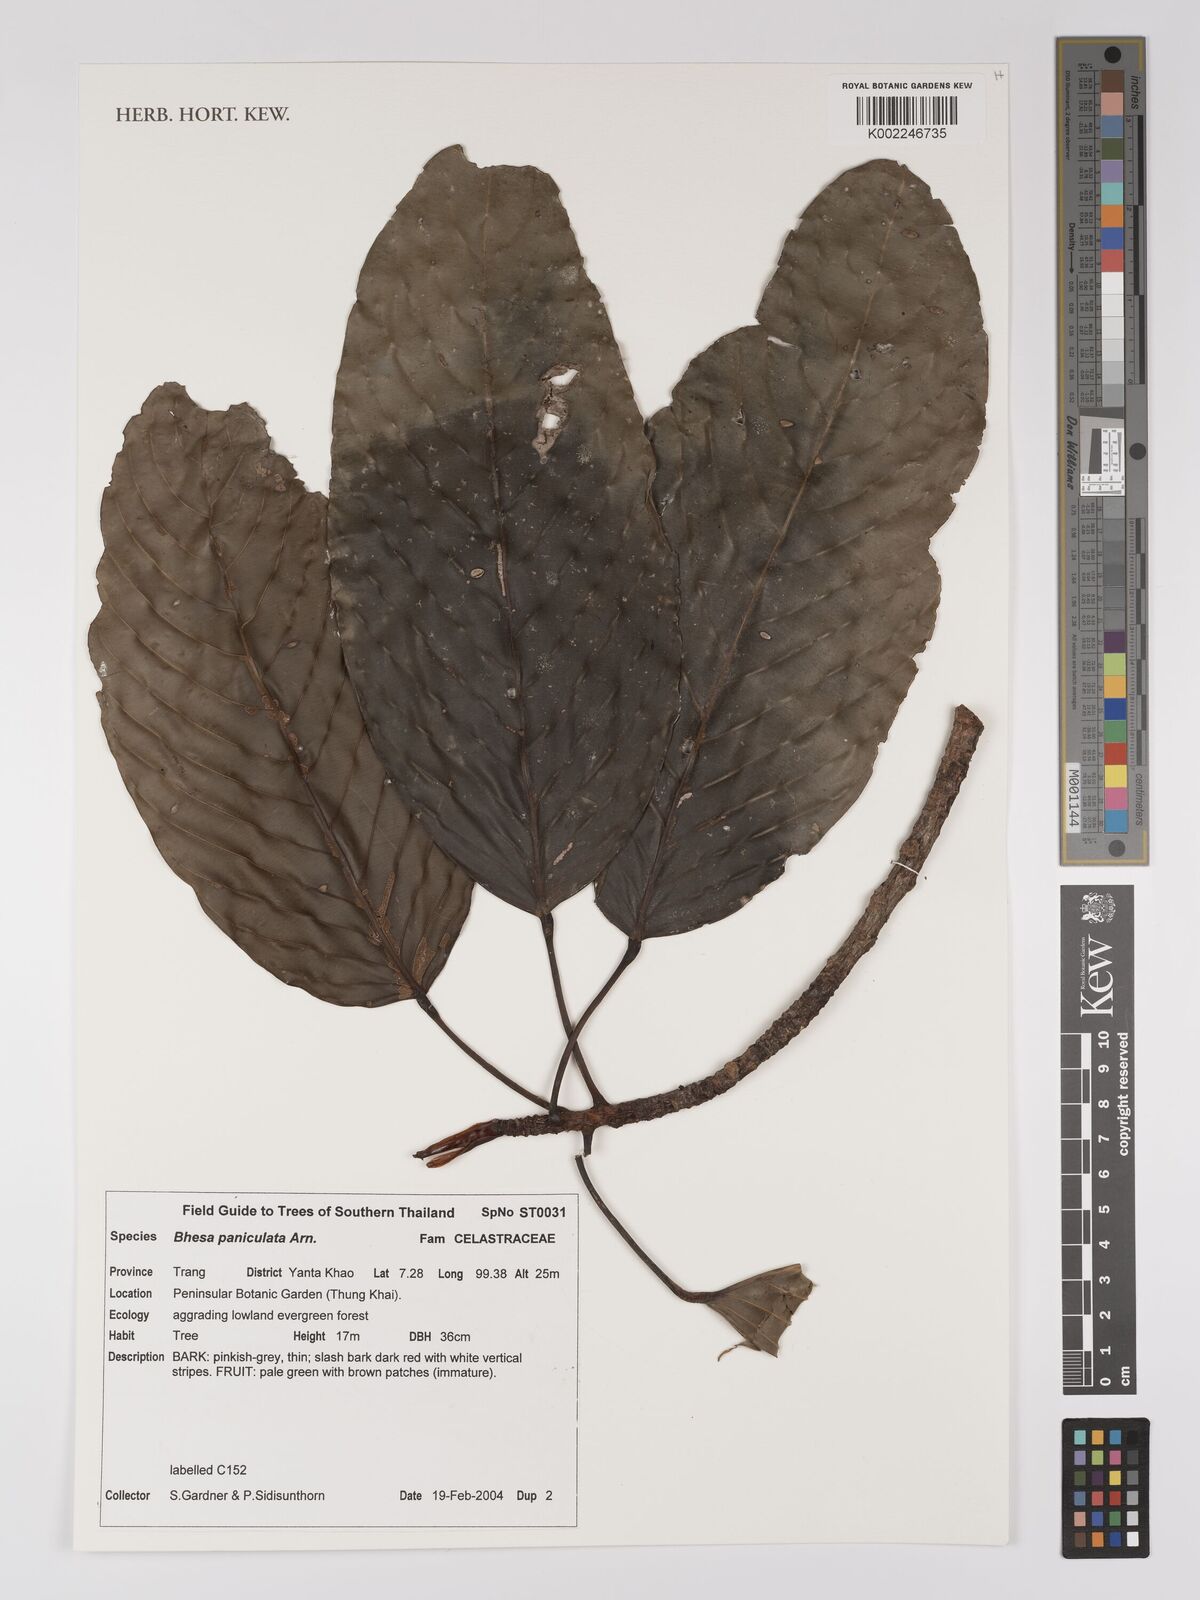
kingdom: Plantae
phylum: Tracheophyta
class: Magnoliopsida
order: Malpighiales
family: Centroplacaceae
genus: Bhesa
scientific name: Bhesa paniculata
